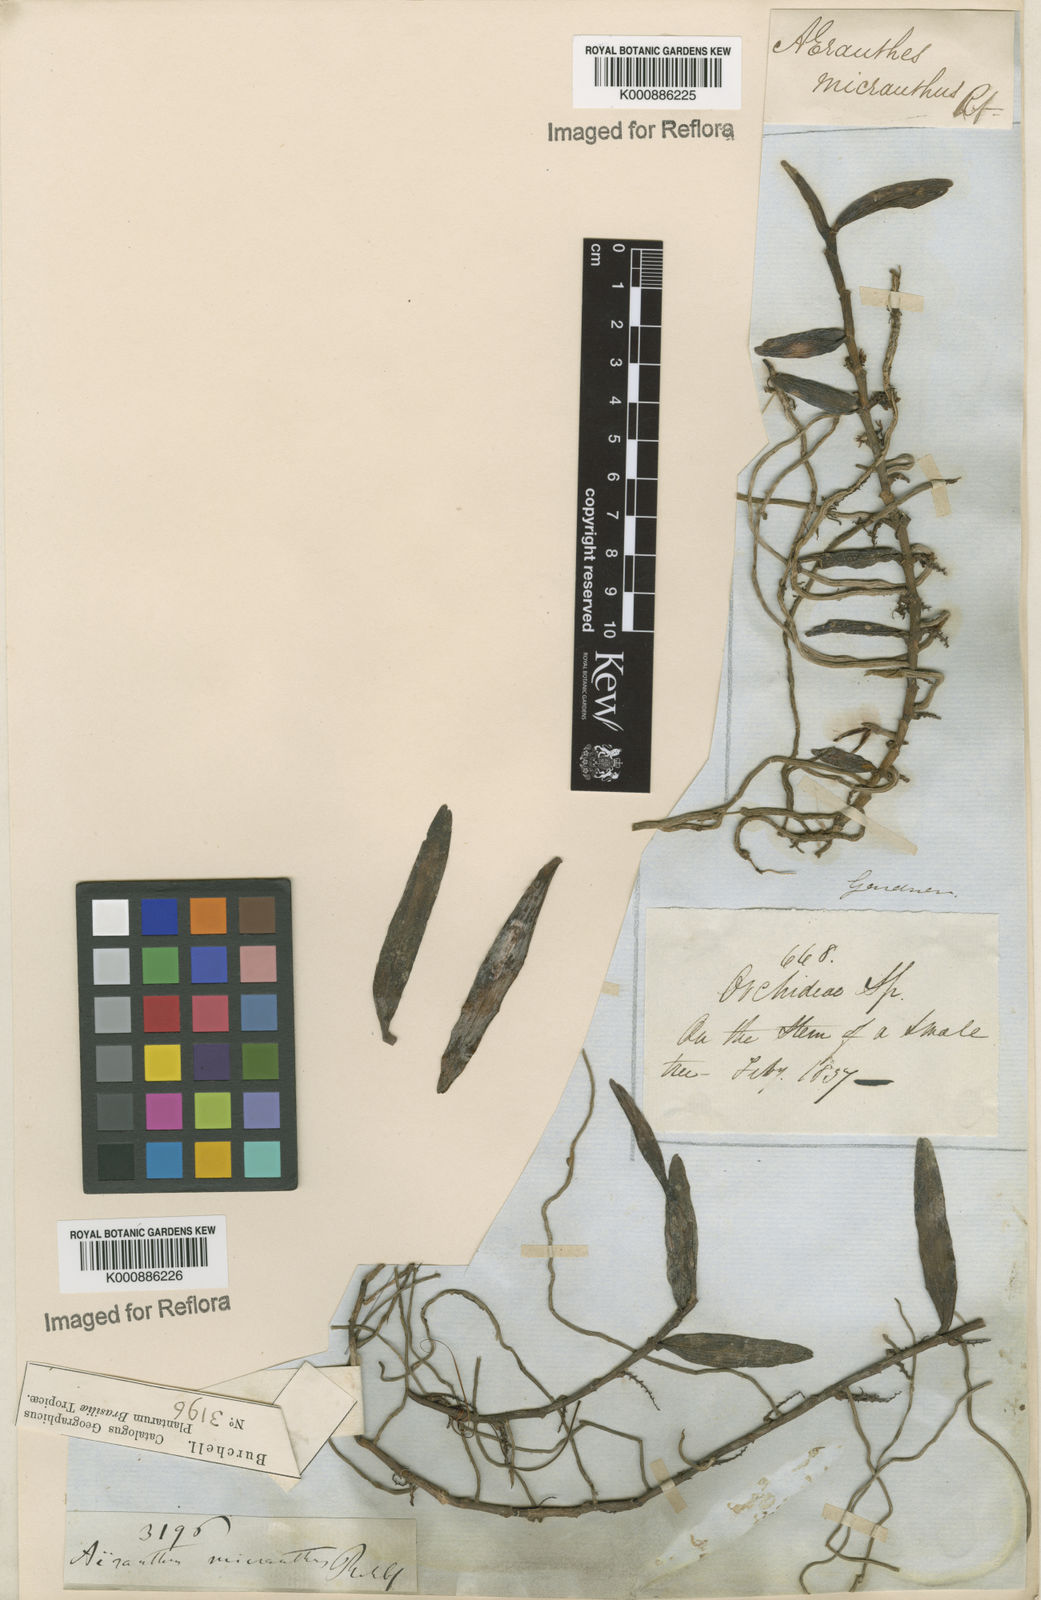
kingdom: Plantae
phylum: Tracheophyta
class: Liliopsida
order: Asparagales
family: Orchidaceae
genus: Campylocentrum
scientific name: Campylocentrum brevifolium
